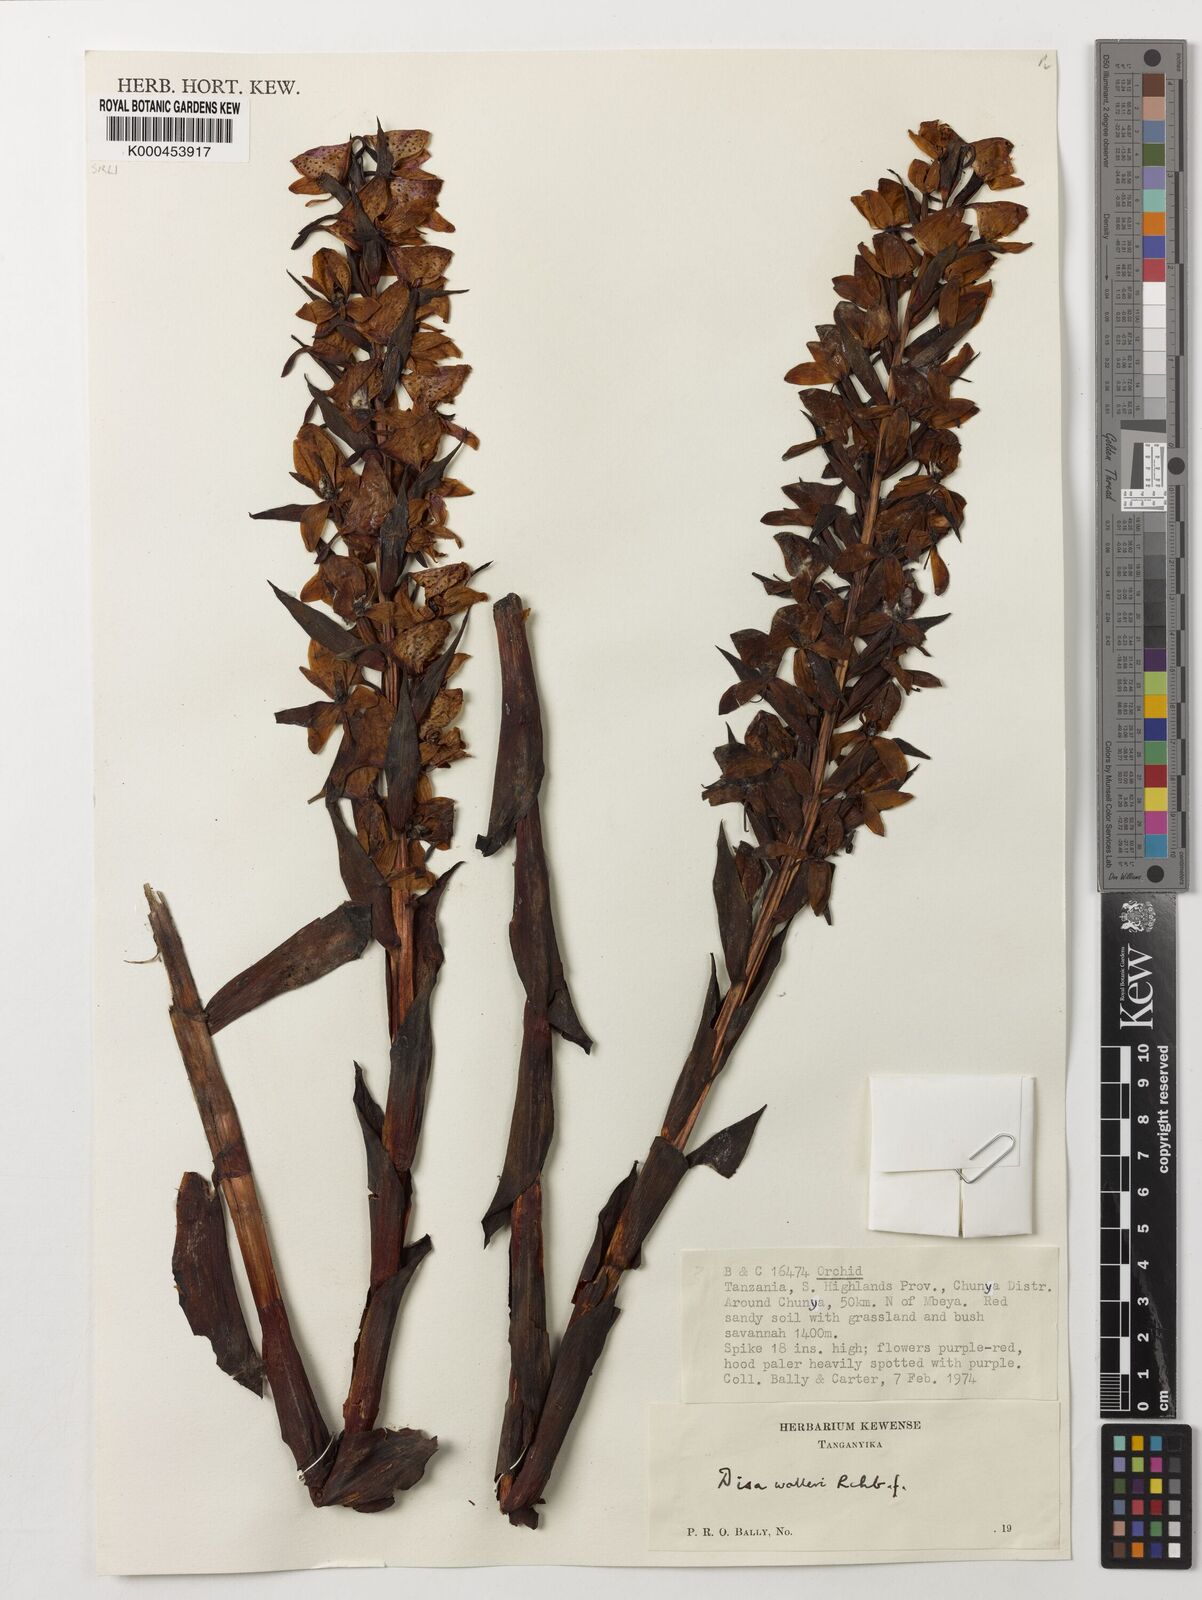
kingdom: Plantae
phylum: Tracheophyta
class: Liliopsida
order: Asparagales
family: Orchidaceae
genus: Disa
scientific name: Disa walleri
